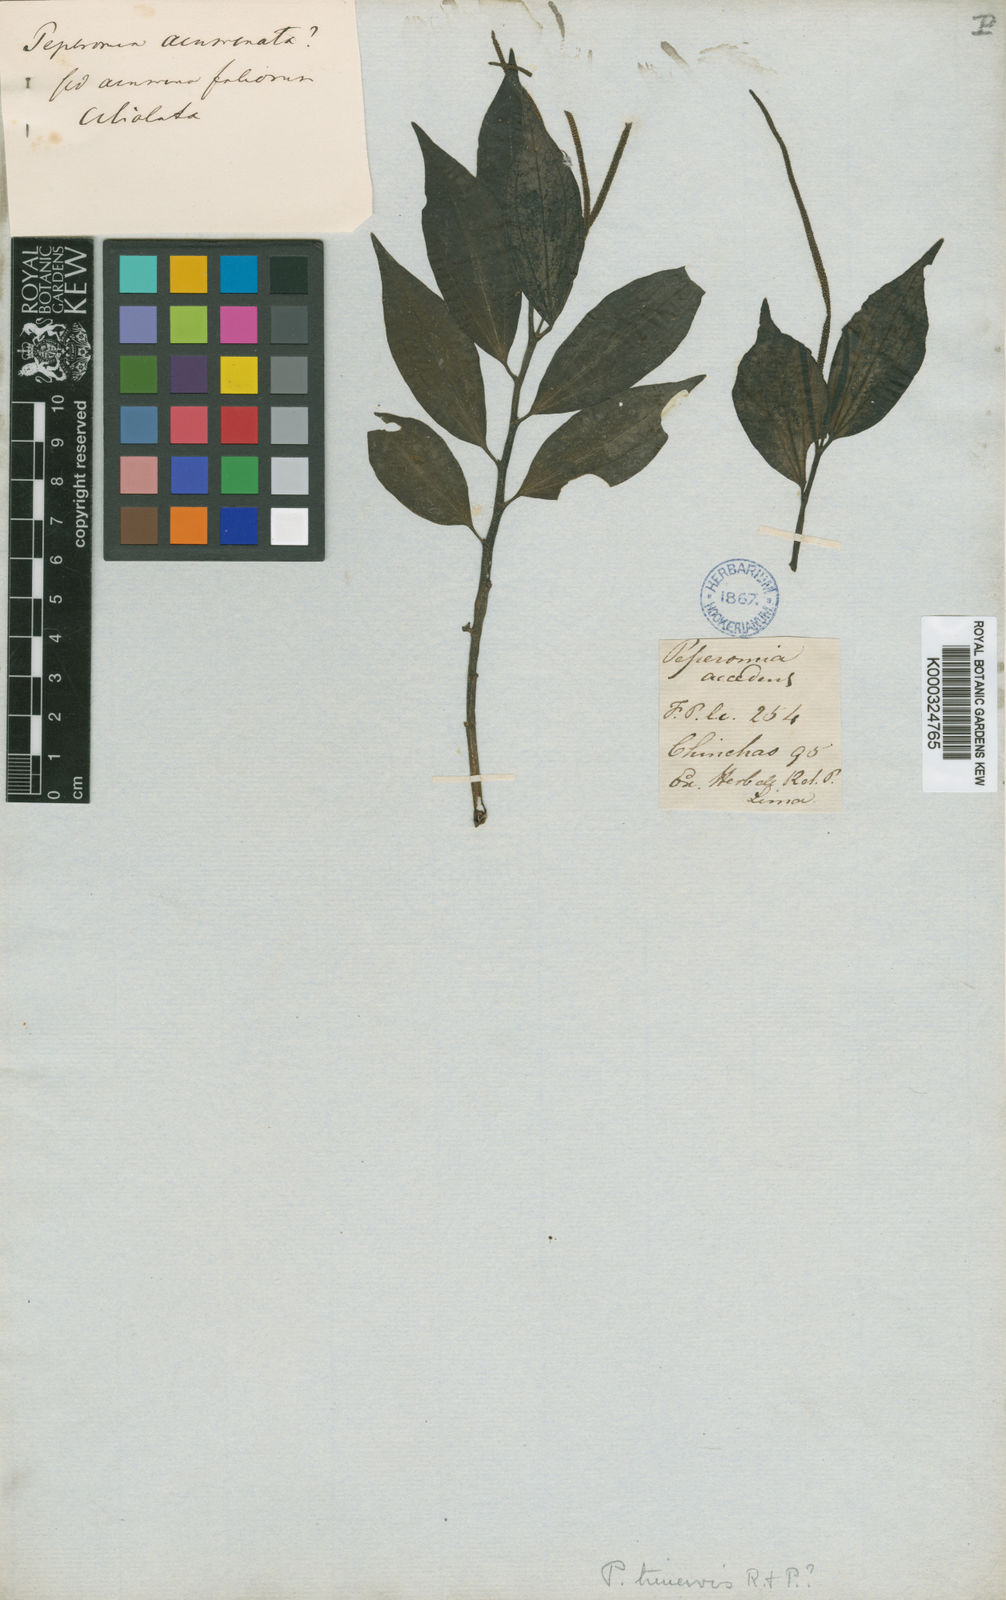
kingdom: Plantae
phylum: Tracheophyta
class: Magnoliopsida
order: Piperales
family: Piperaceae
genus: Peperomia
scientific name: Peperomia trinervis
